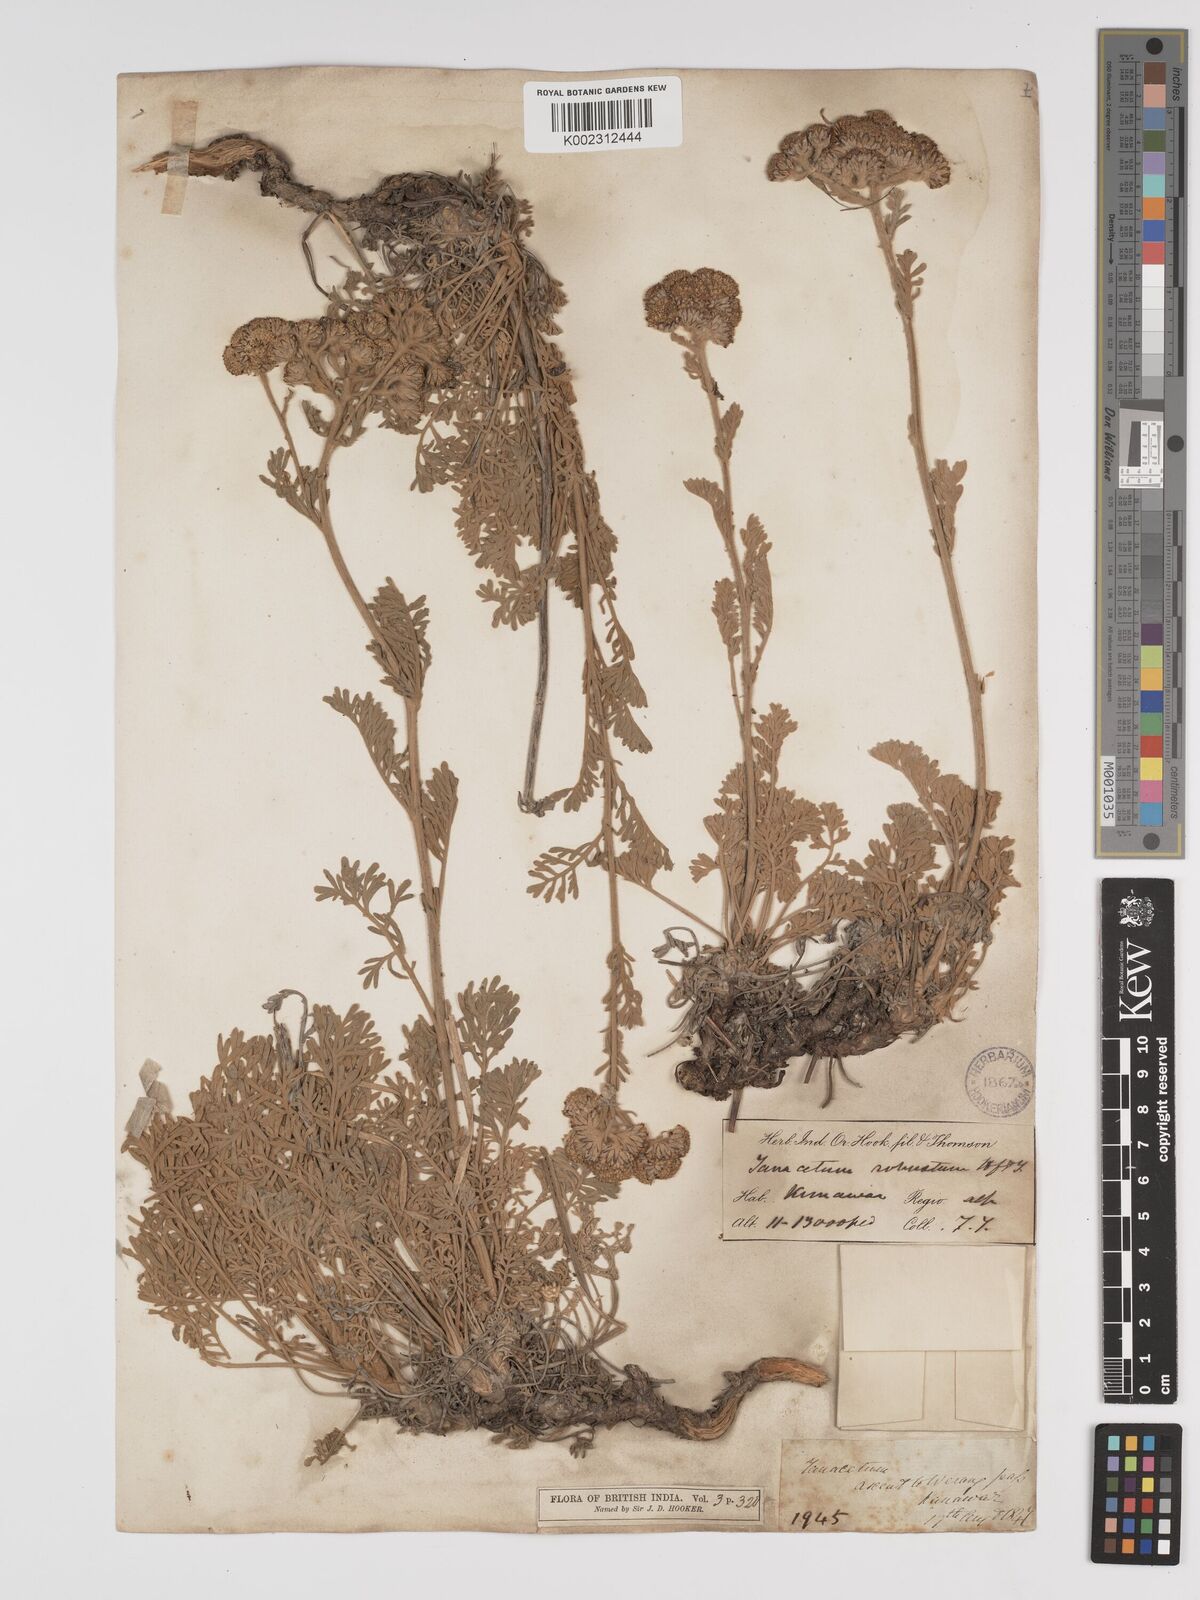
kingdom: Plantae
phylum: Tracheophyta
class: Magnoliopsida
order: Asterales
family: Asteraceae
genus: Tanacetum
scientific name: Tanacetum robustum
